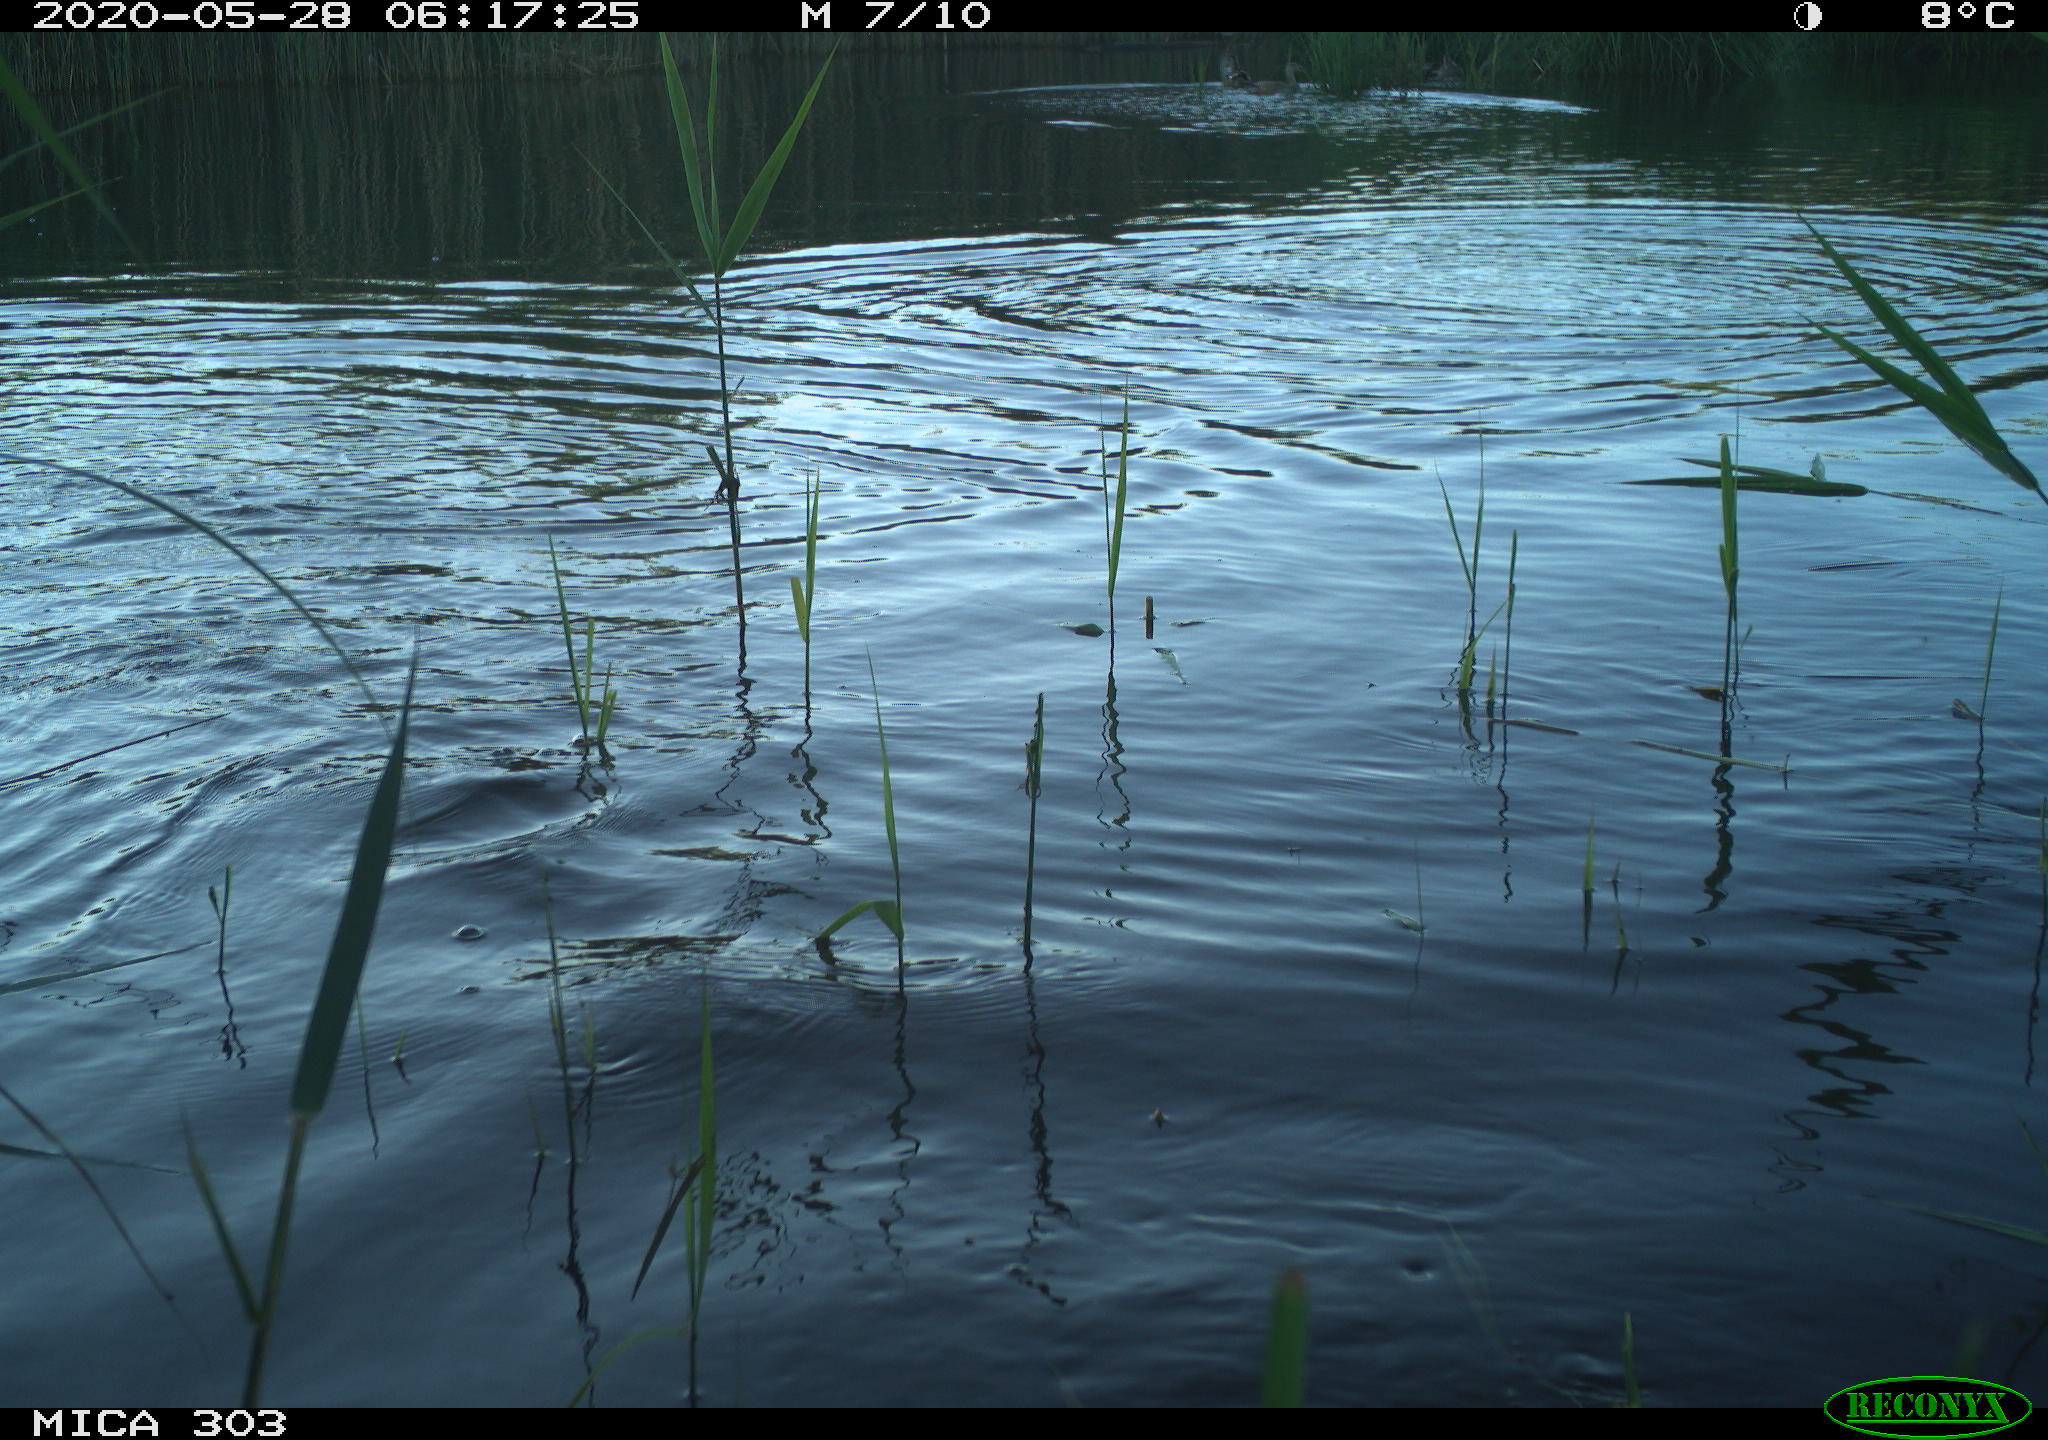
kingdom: Animalia
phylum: Chordata
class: Aves
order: Anseriformes
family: Anatidae
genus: Anas
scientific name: Anas platyrhynchos
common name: Mallard
